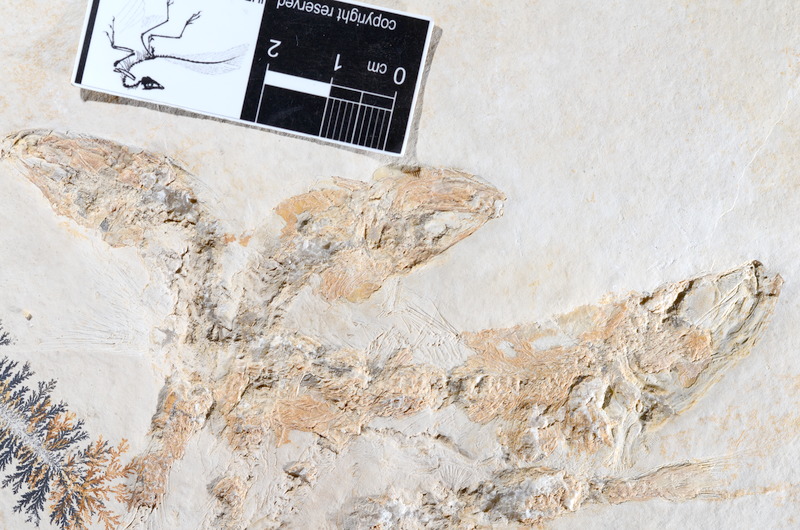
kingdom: Animalia
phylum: Chordata
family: Ascalaboidae
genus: Tharsis
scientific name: Tharsis dubius
